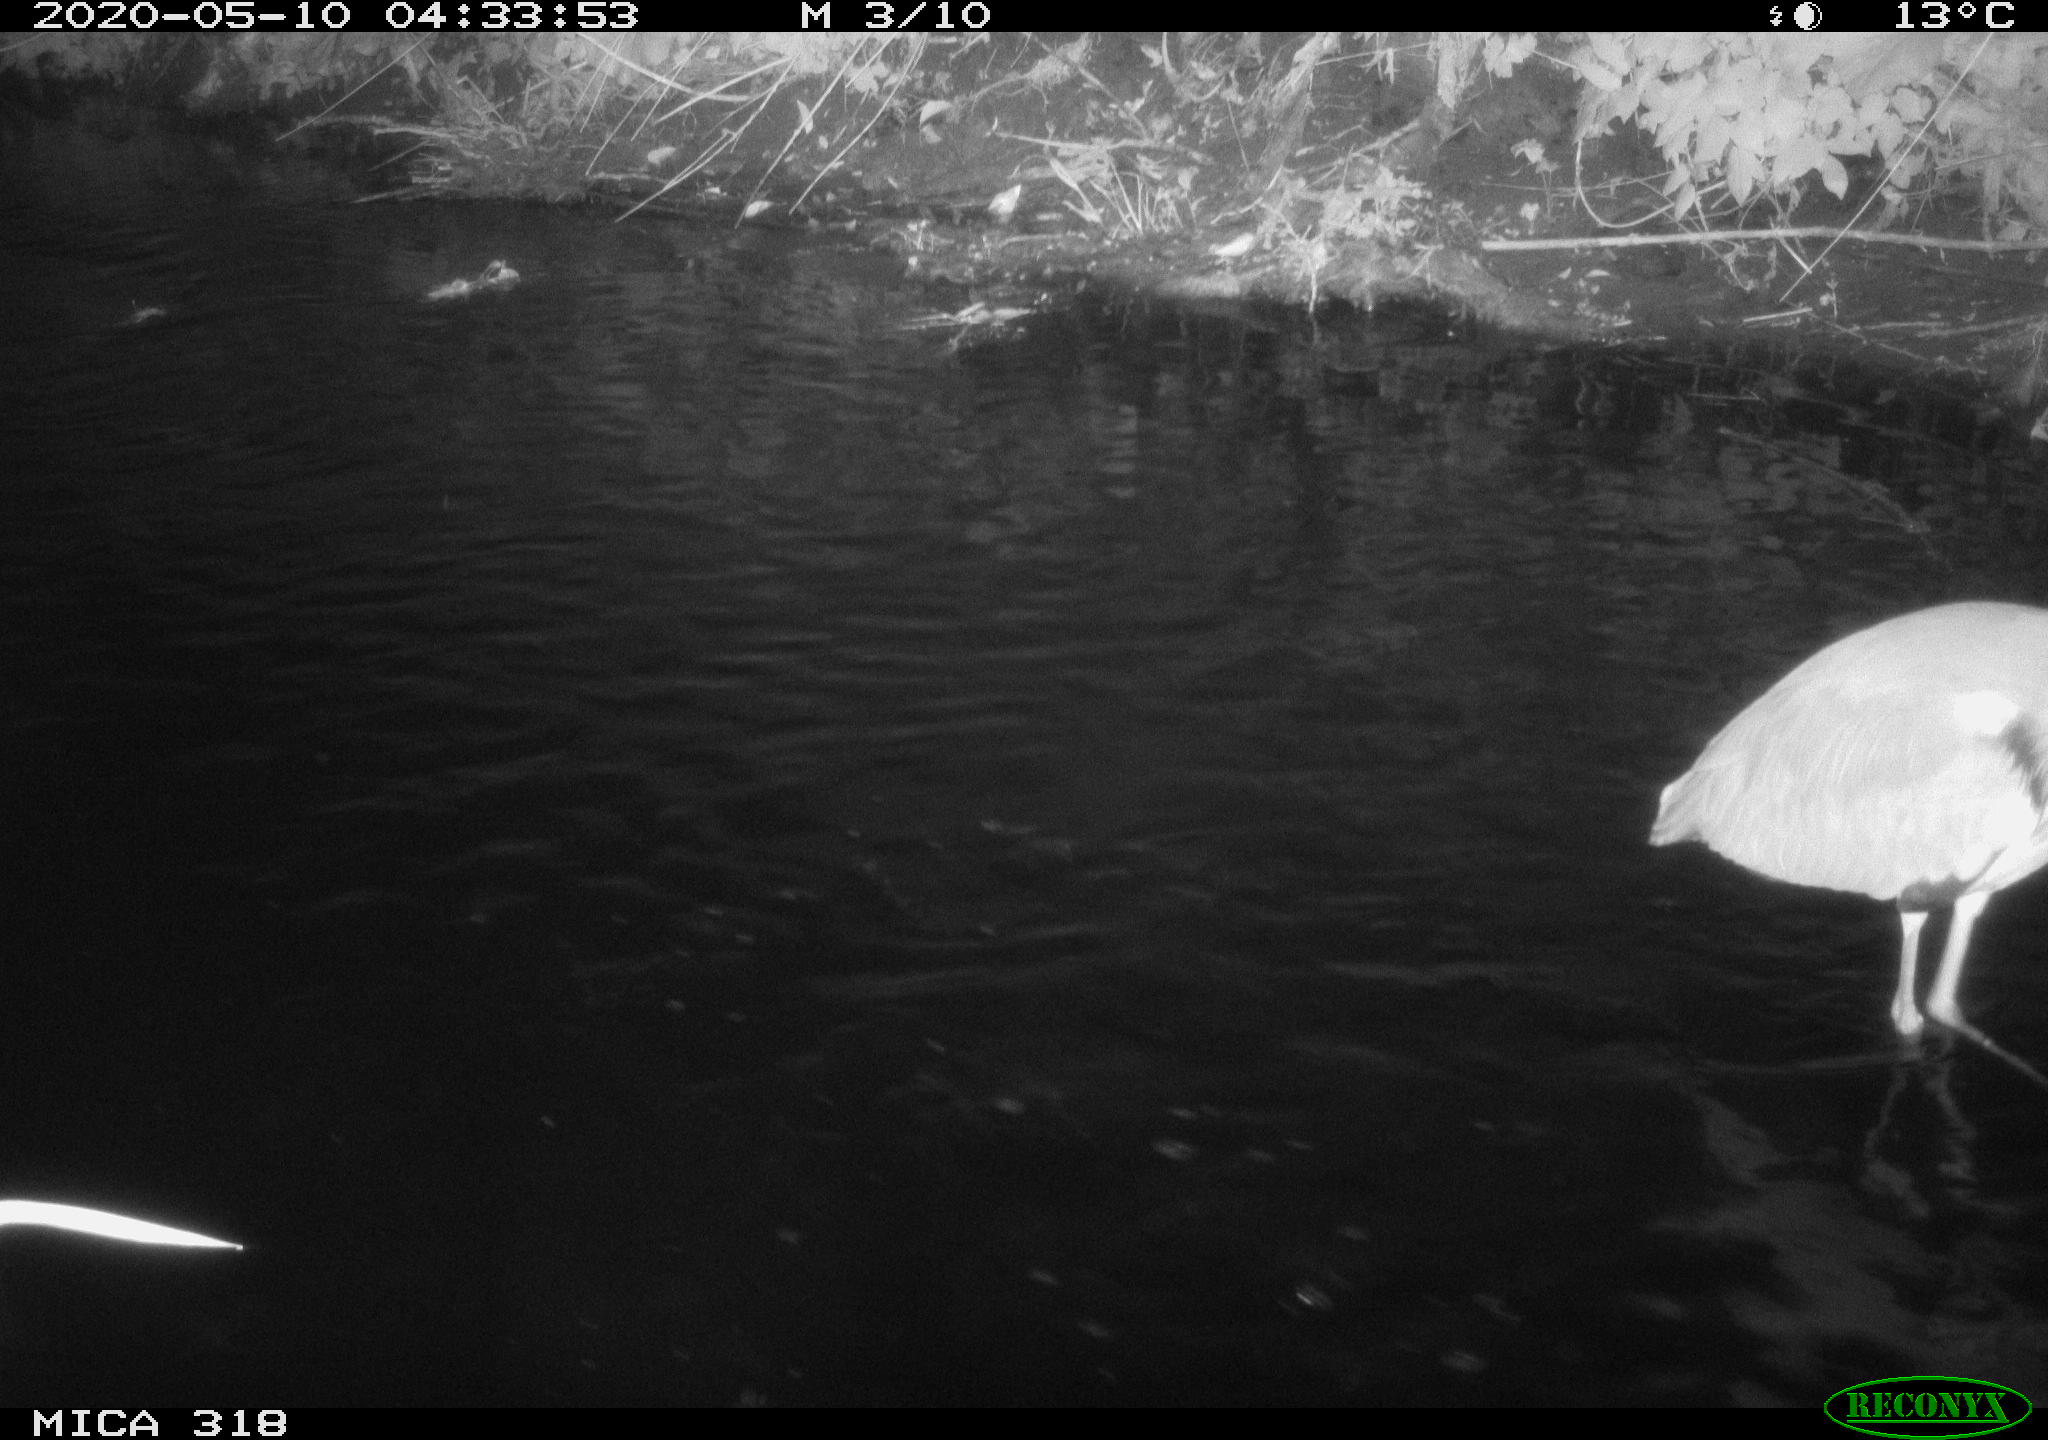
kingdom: Animalia
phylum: Chordata
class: Aves
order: Pelecaniformes
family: Ardeidae
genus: Ardea
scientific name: Ardea cinerea
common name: Grey heron
